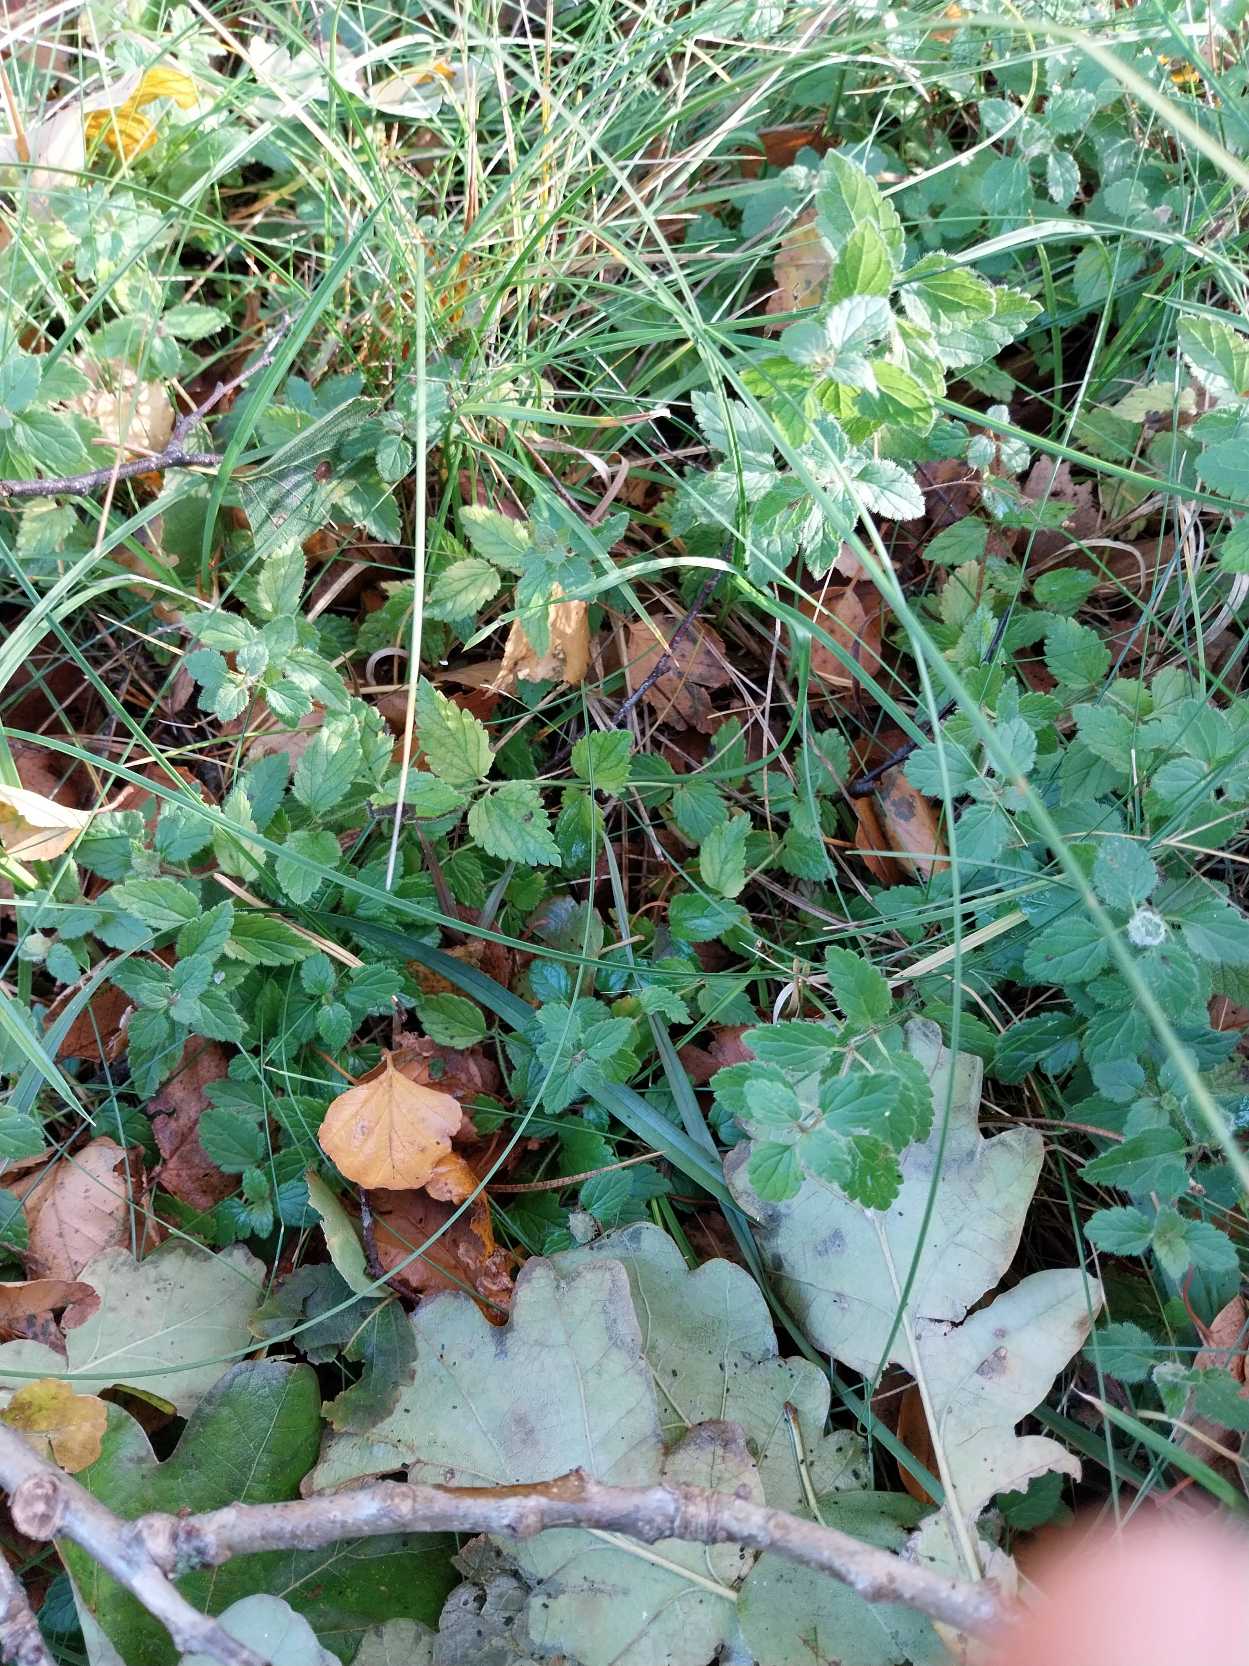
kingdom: Plantae
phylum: Tracheophyta
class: Magnoliopsida
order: Lamiales
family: Plantaginaceae
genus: Veronica
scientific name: Veronica chamaedrys
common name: Tveskægget ærenpris
